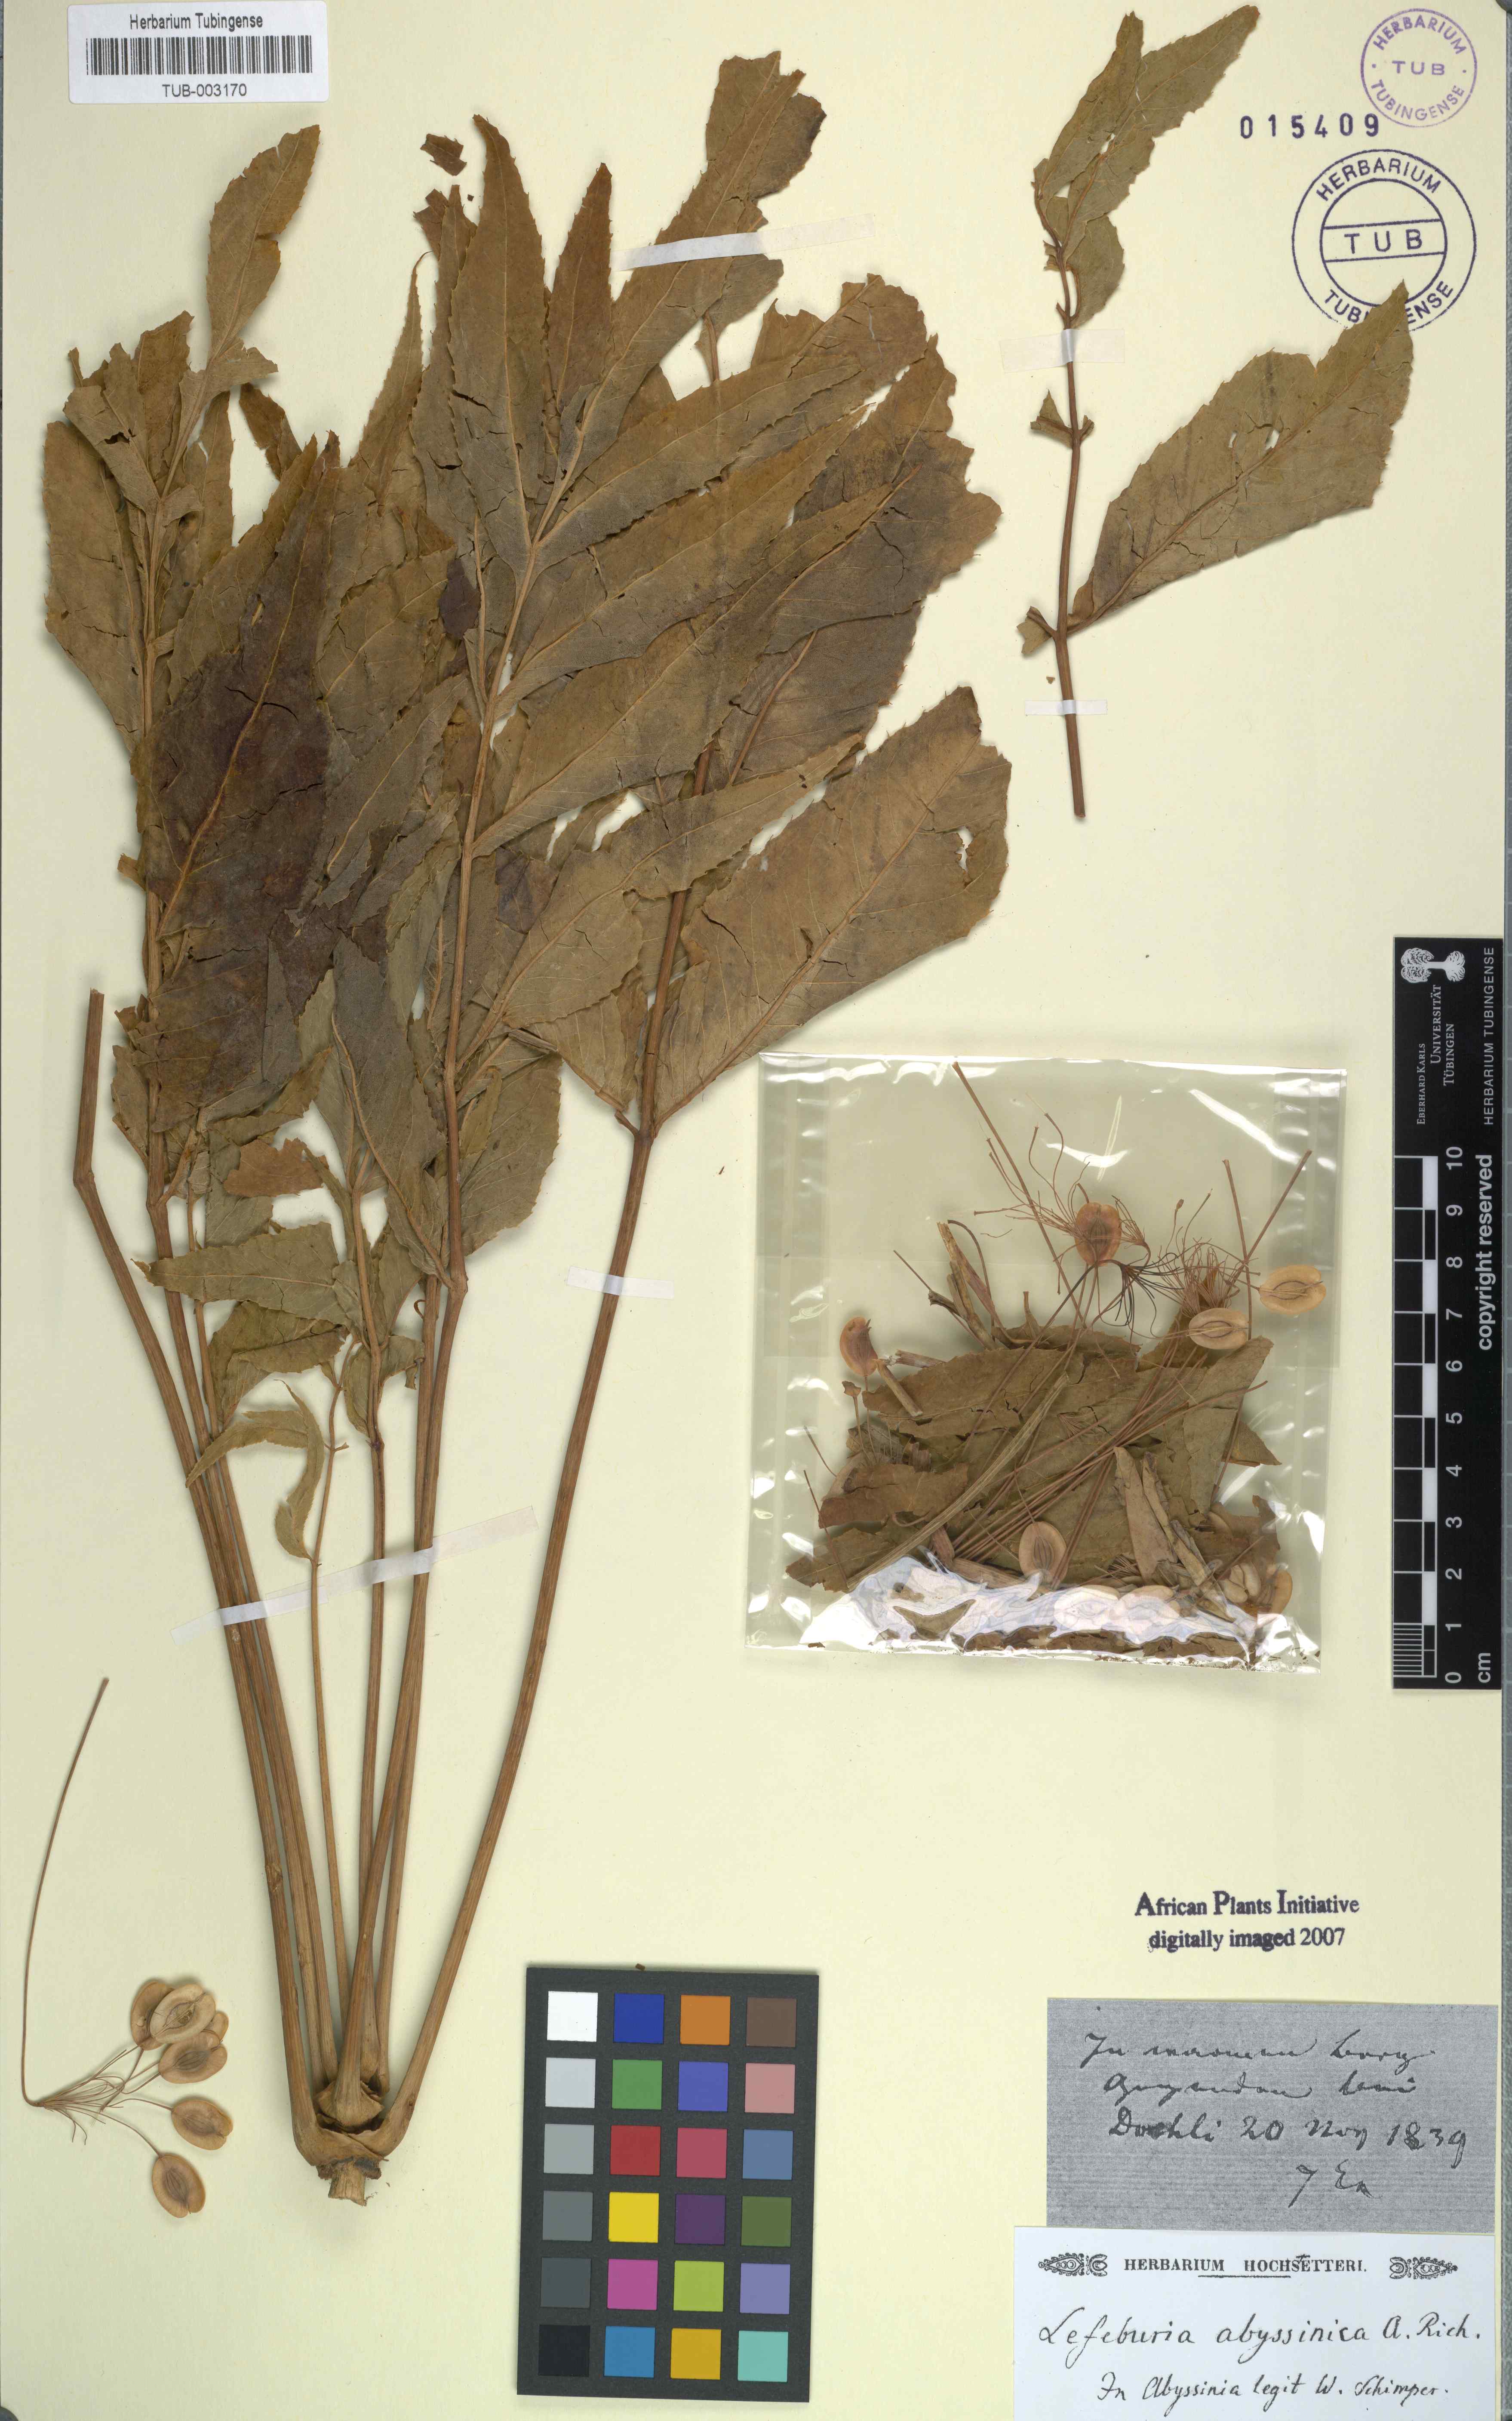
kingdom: Plantae
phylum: Tracheophyta
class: Magnoliopsida
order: Apiales
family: Apiaceae
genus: Lefebvrea
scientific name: Lefebvrea abyssinica
